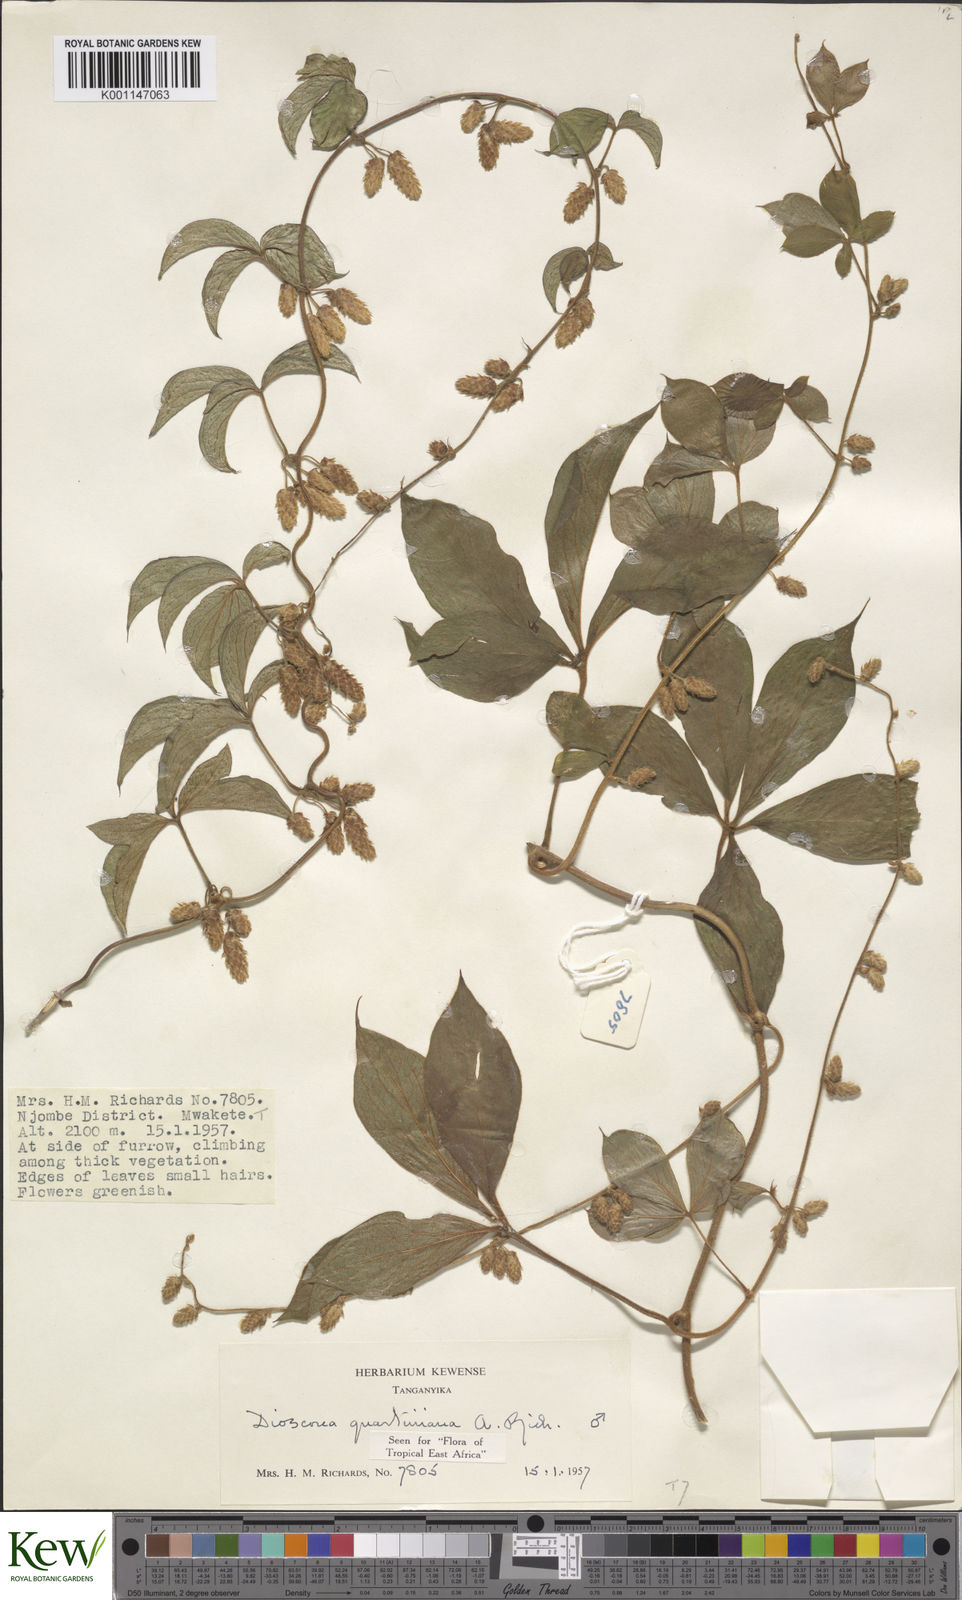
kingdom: Plantae
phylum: Tracheophyta
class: Liliopsida
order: Dioscoreales
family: Dioscoreaceae
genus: Dioscorea
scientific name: Dioscorea quartiniana
